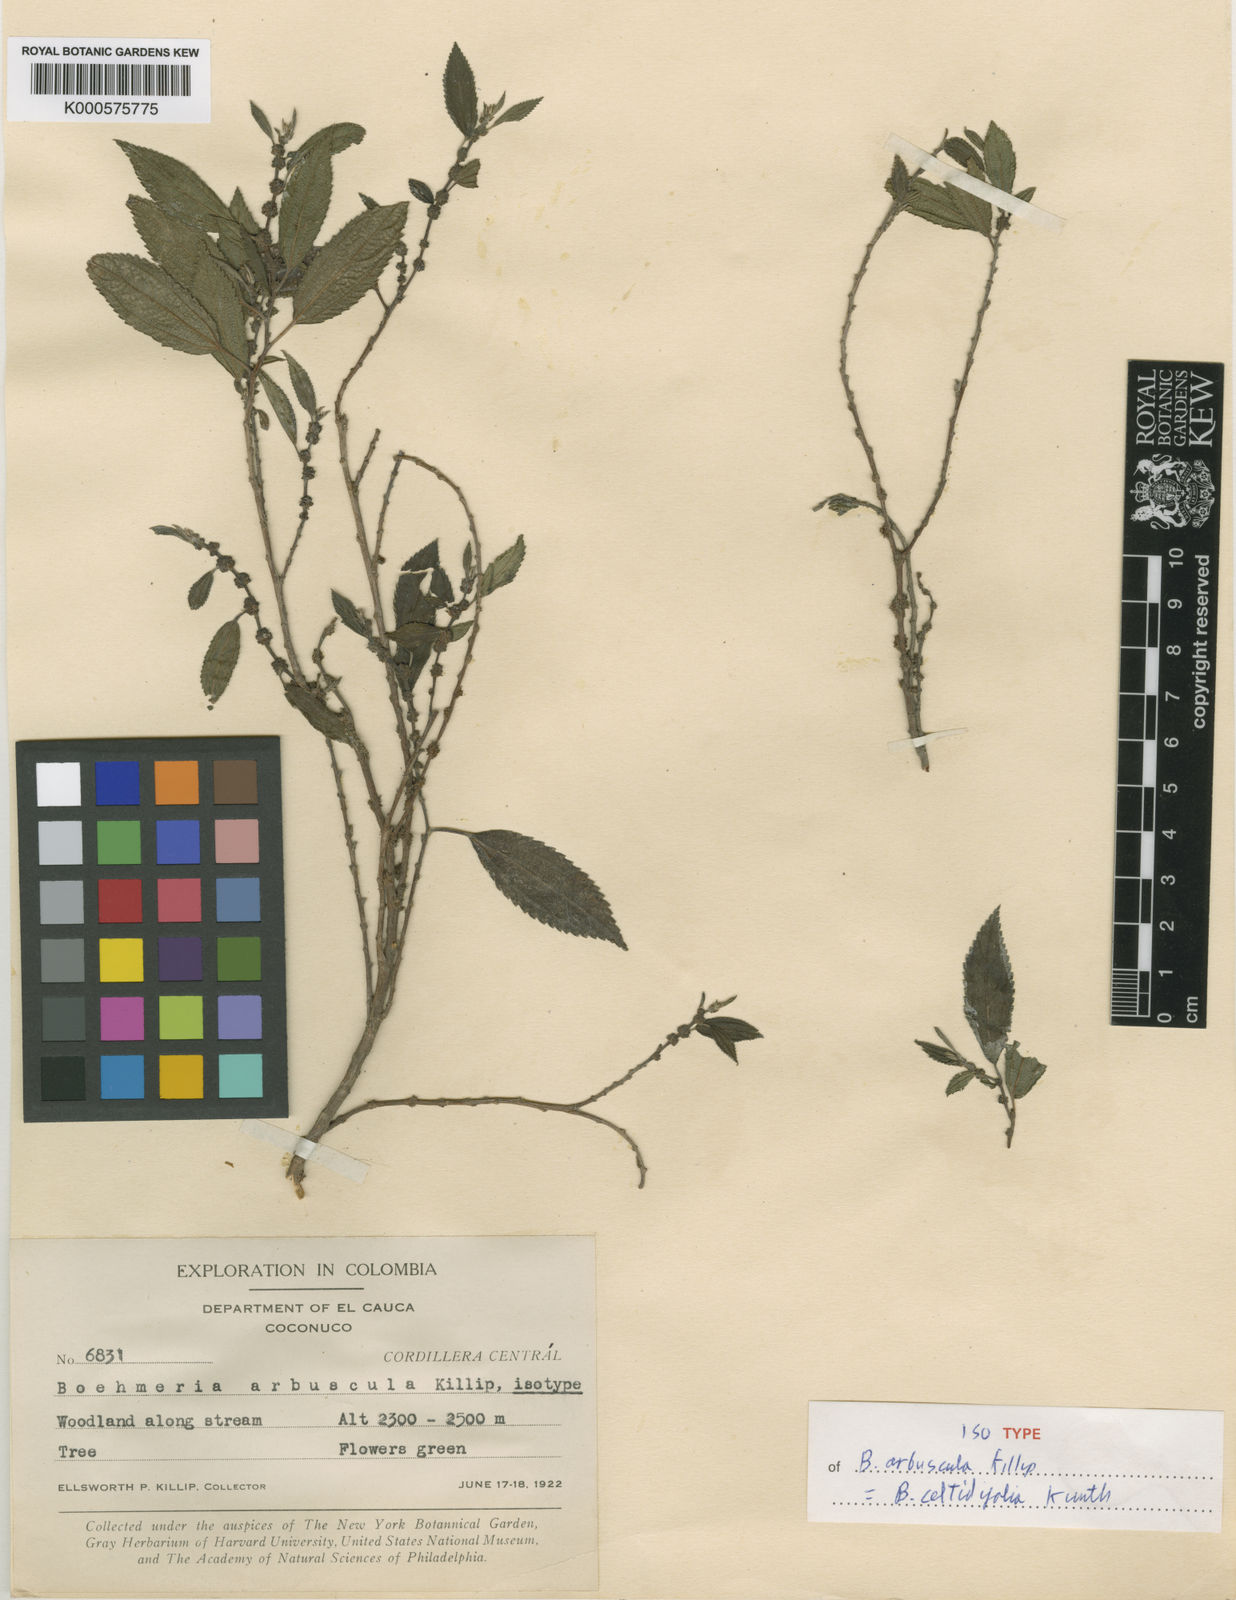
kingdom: Plantae
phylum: Tracheophyta
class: Magnoliopsida
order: Rosales
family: Urticaceae
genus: Boehmeria
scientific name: Boehmeria celtidifolia
